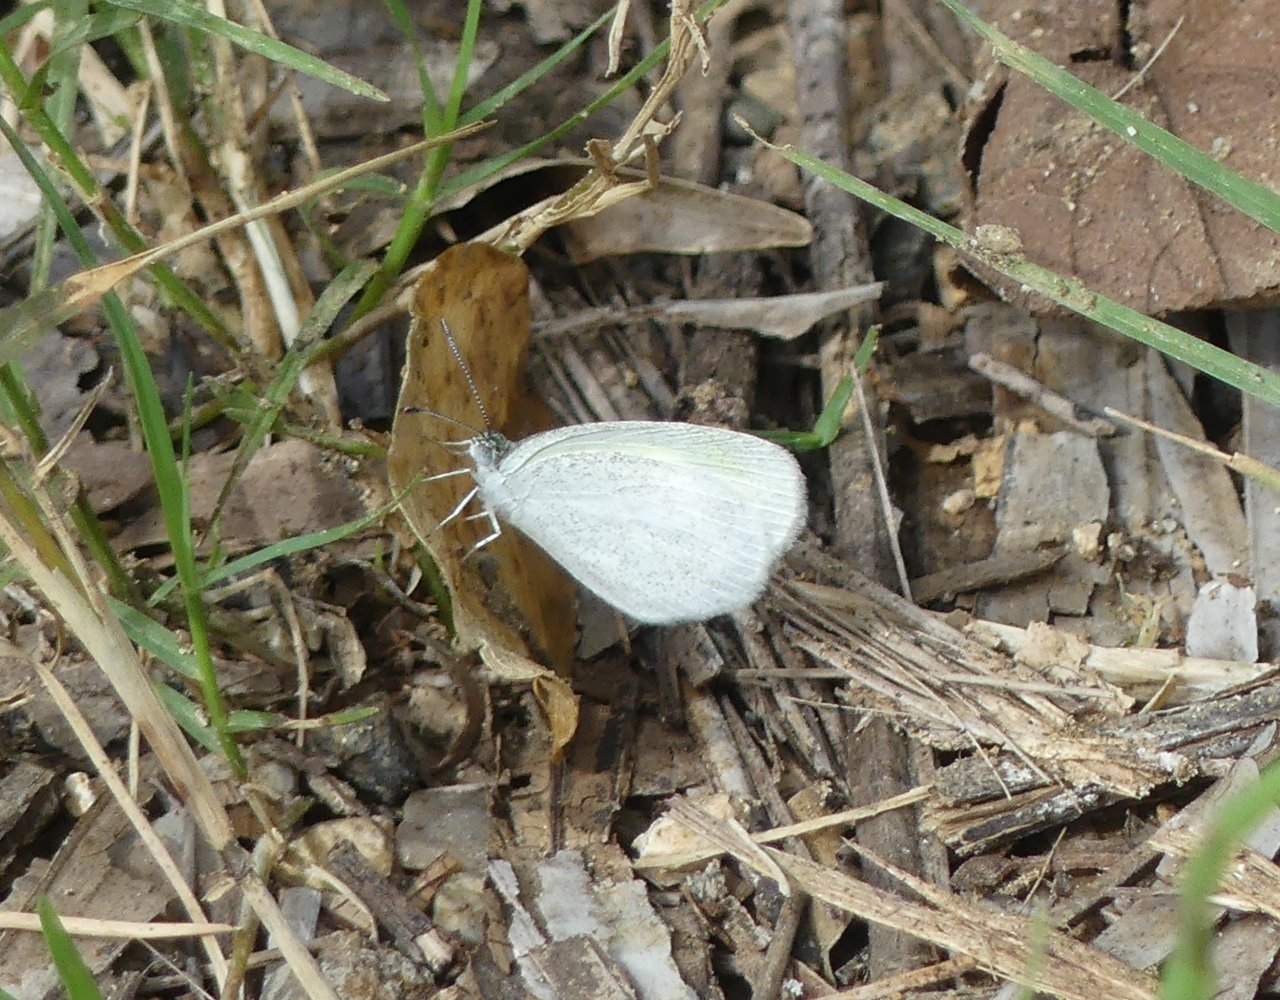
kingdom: Animalia
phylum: Arthropoda
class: Insecta
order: Lepidoptera
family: Pieridae
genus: Eurema
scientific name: Eurema daira
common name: Barred Yellow
